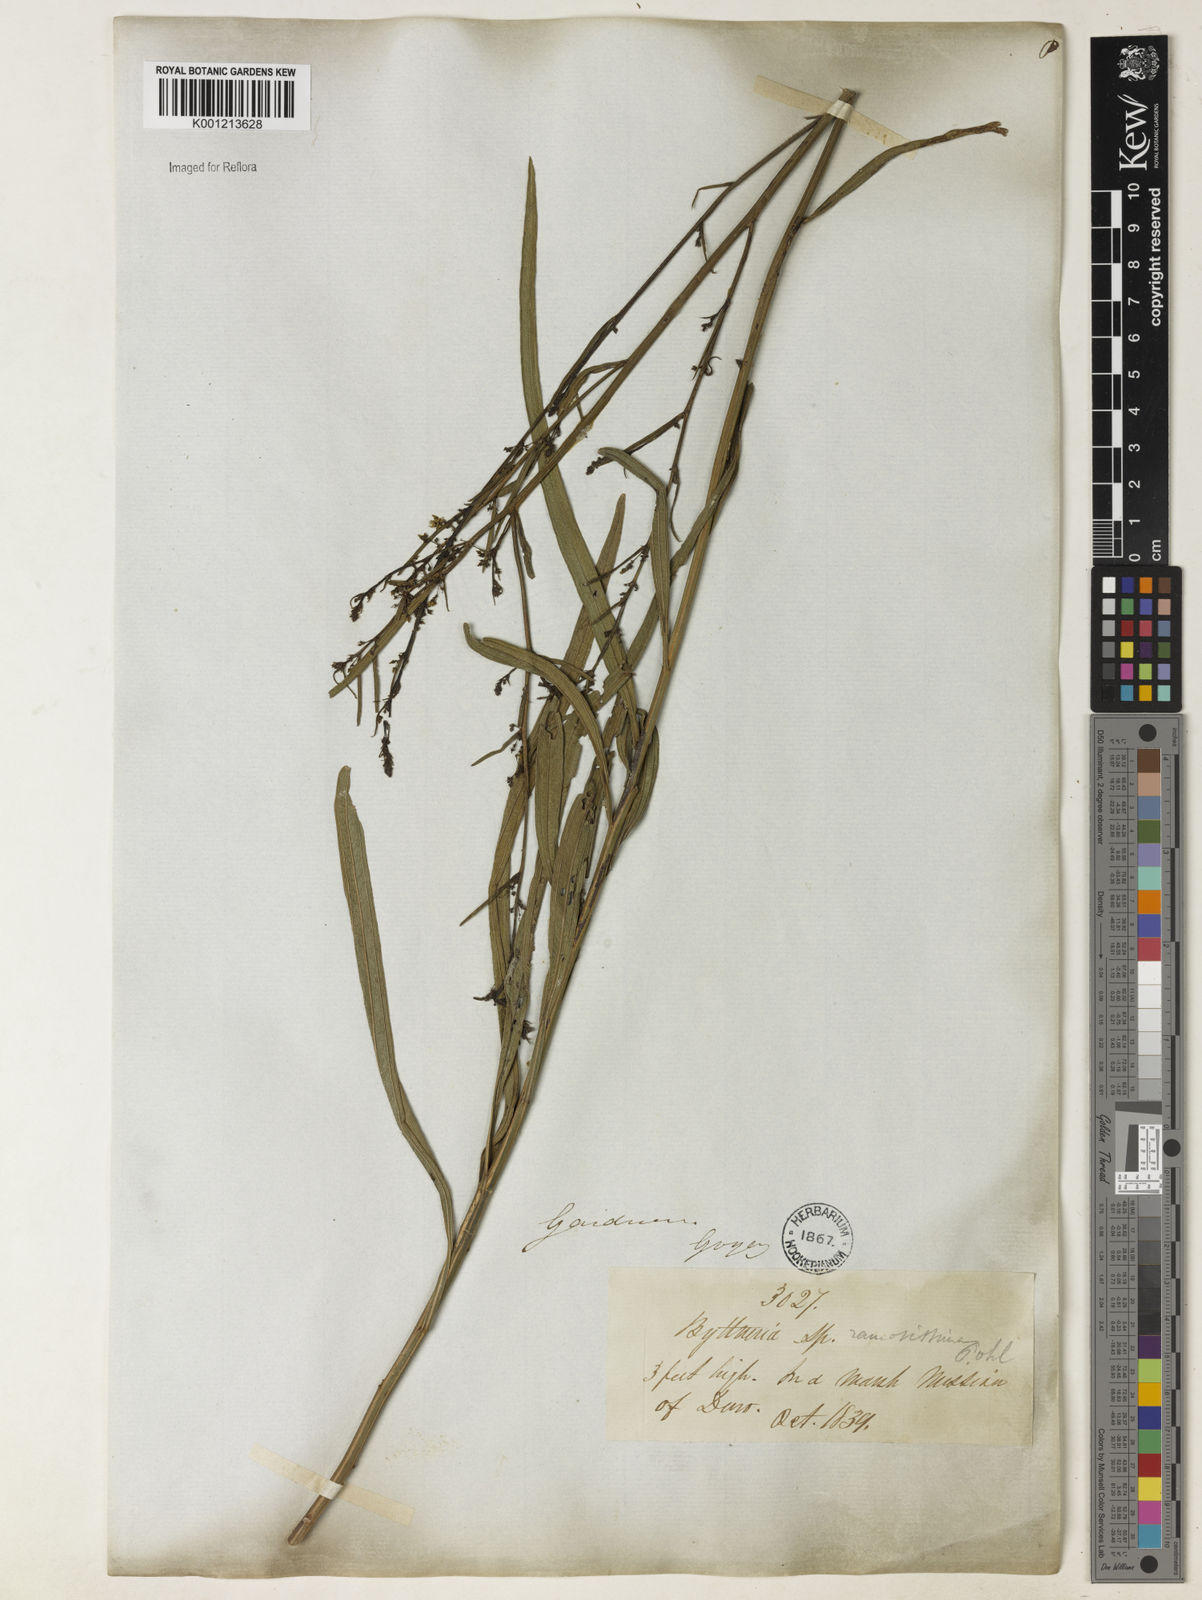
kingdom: Plantae
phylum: Tracheophyta
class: Magnoliopsida
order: Malvales
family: Malvaceae
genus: Byttneria
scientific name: Byttneria ramosissima
